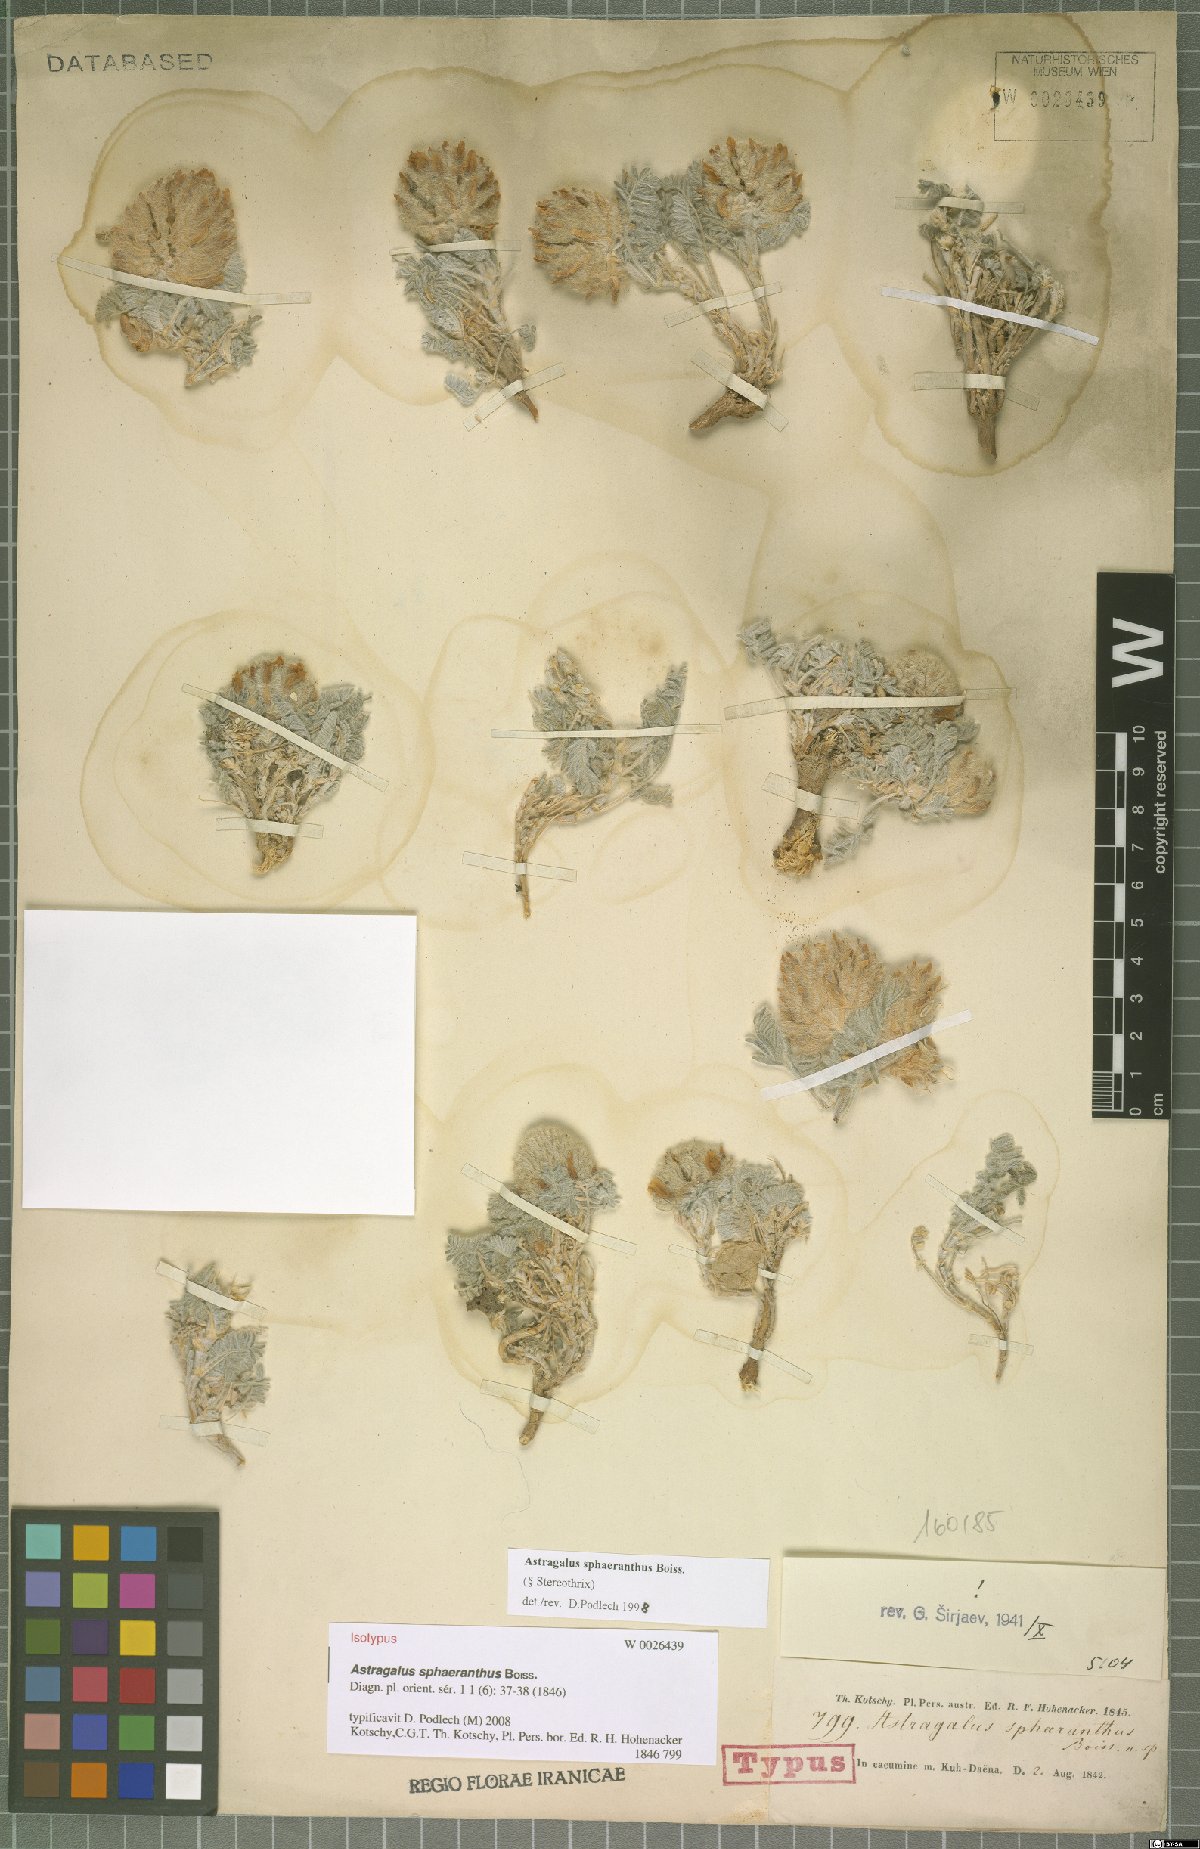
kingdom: Plantae
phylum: Tracheophyta
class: Magnoliopsida
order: Fabales
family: Fabaceae
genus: Astragalus
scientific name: Astragalus sphaeranthus
